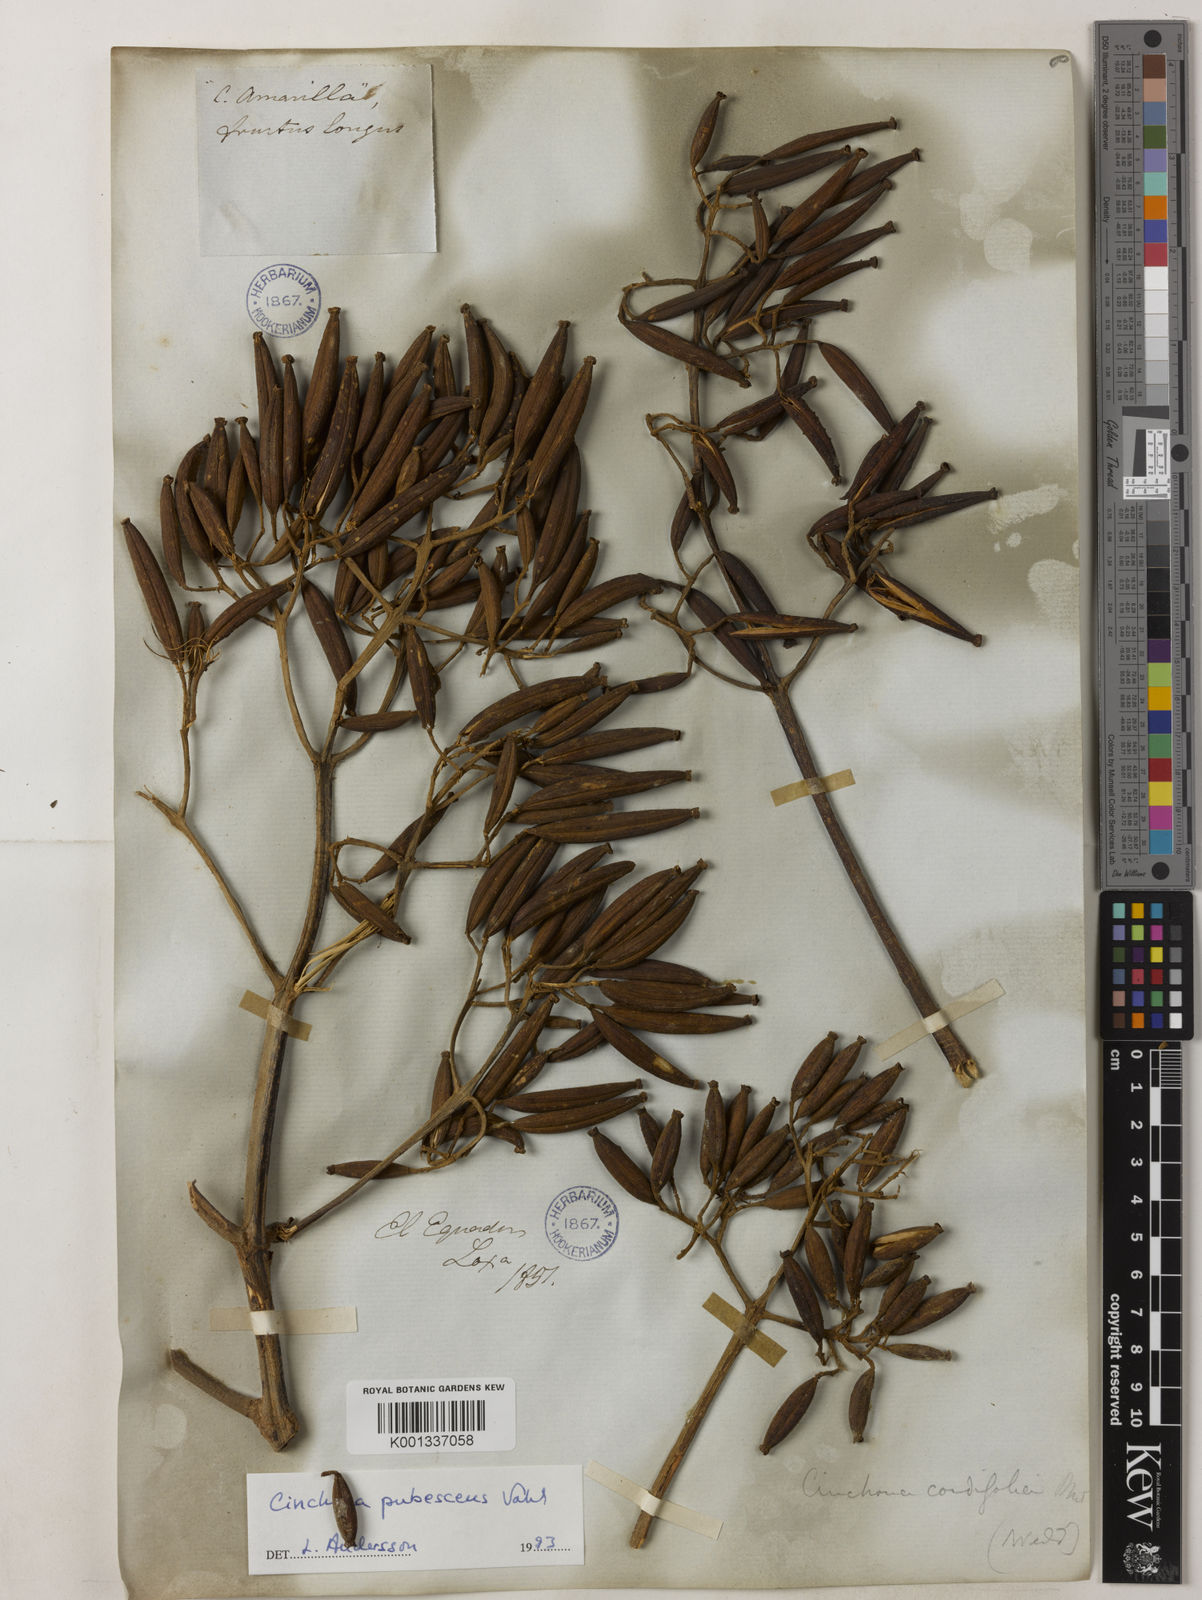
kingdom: Plantae
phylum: Tracheophyta
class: Magnoliopsida
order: Gentianales
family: Rubiaceae
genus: Cinchona
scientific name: Cinchona pubescens
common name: Quinine
